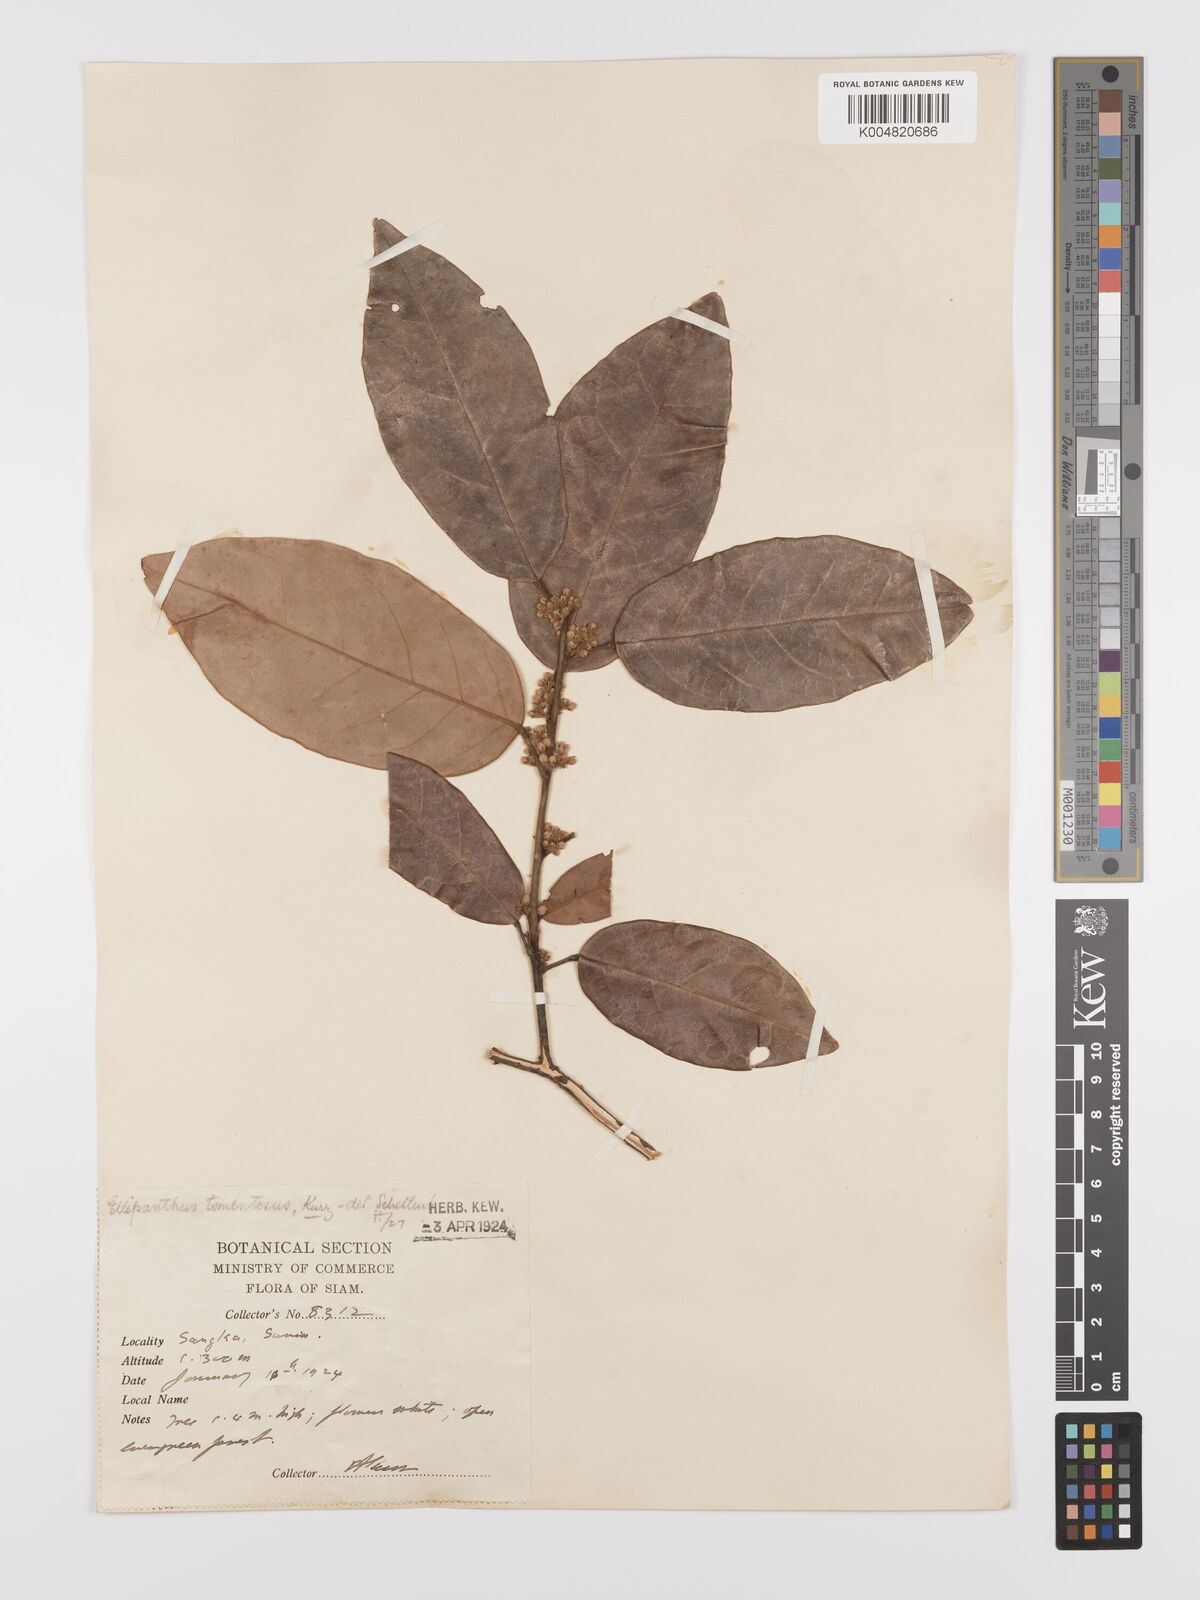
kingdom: Plantae
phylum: Tracheophyta
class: Magnoliopsida
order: Oxalidales
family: Connaraceae
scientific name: Connaraceae
